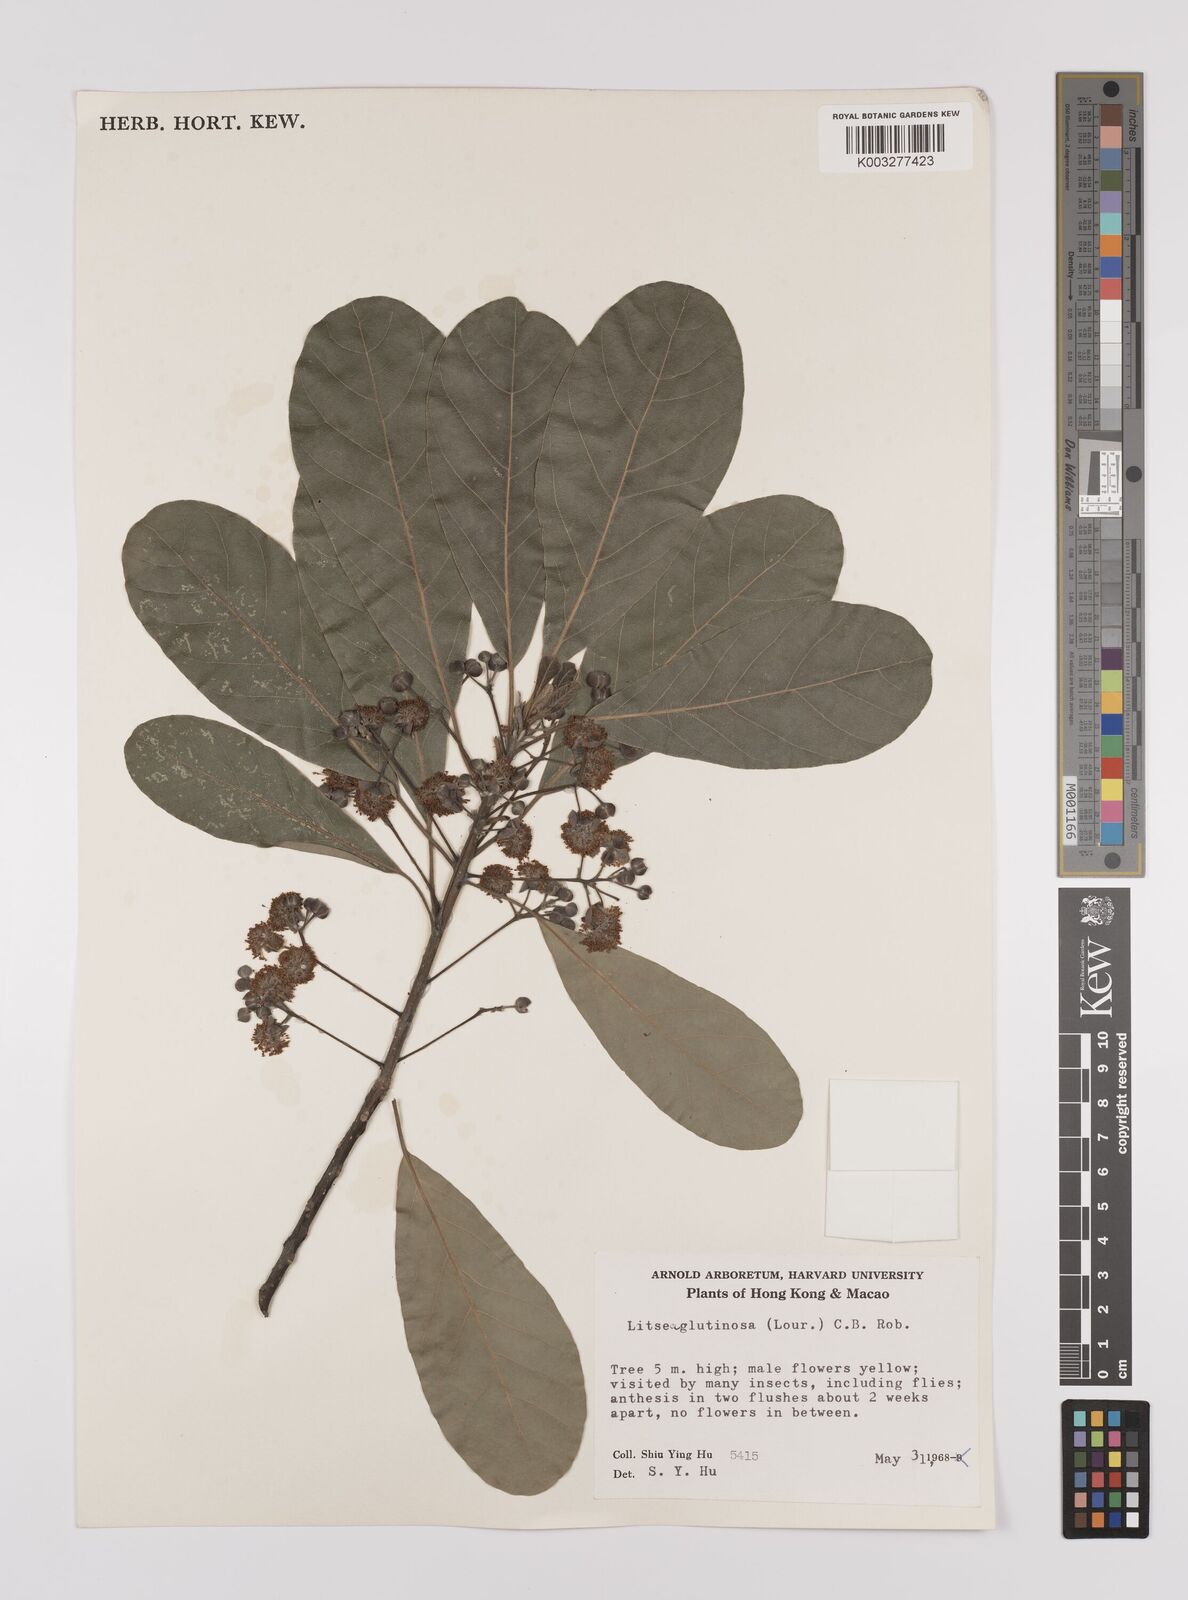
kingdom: Plantae
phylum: Tracheophyta
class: Magnoliopsida
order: Laurales
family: Lauraceae
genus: Litsea
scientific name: Litsea glutinosa
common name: Indian-laurel
